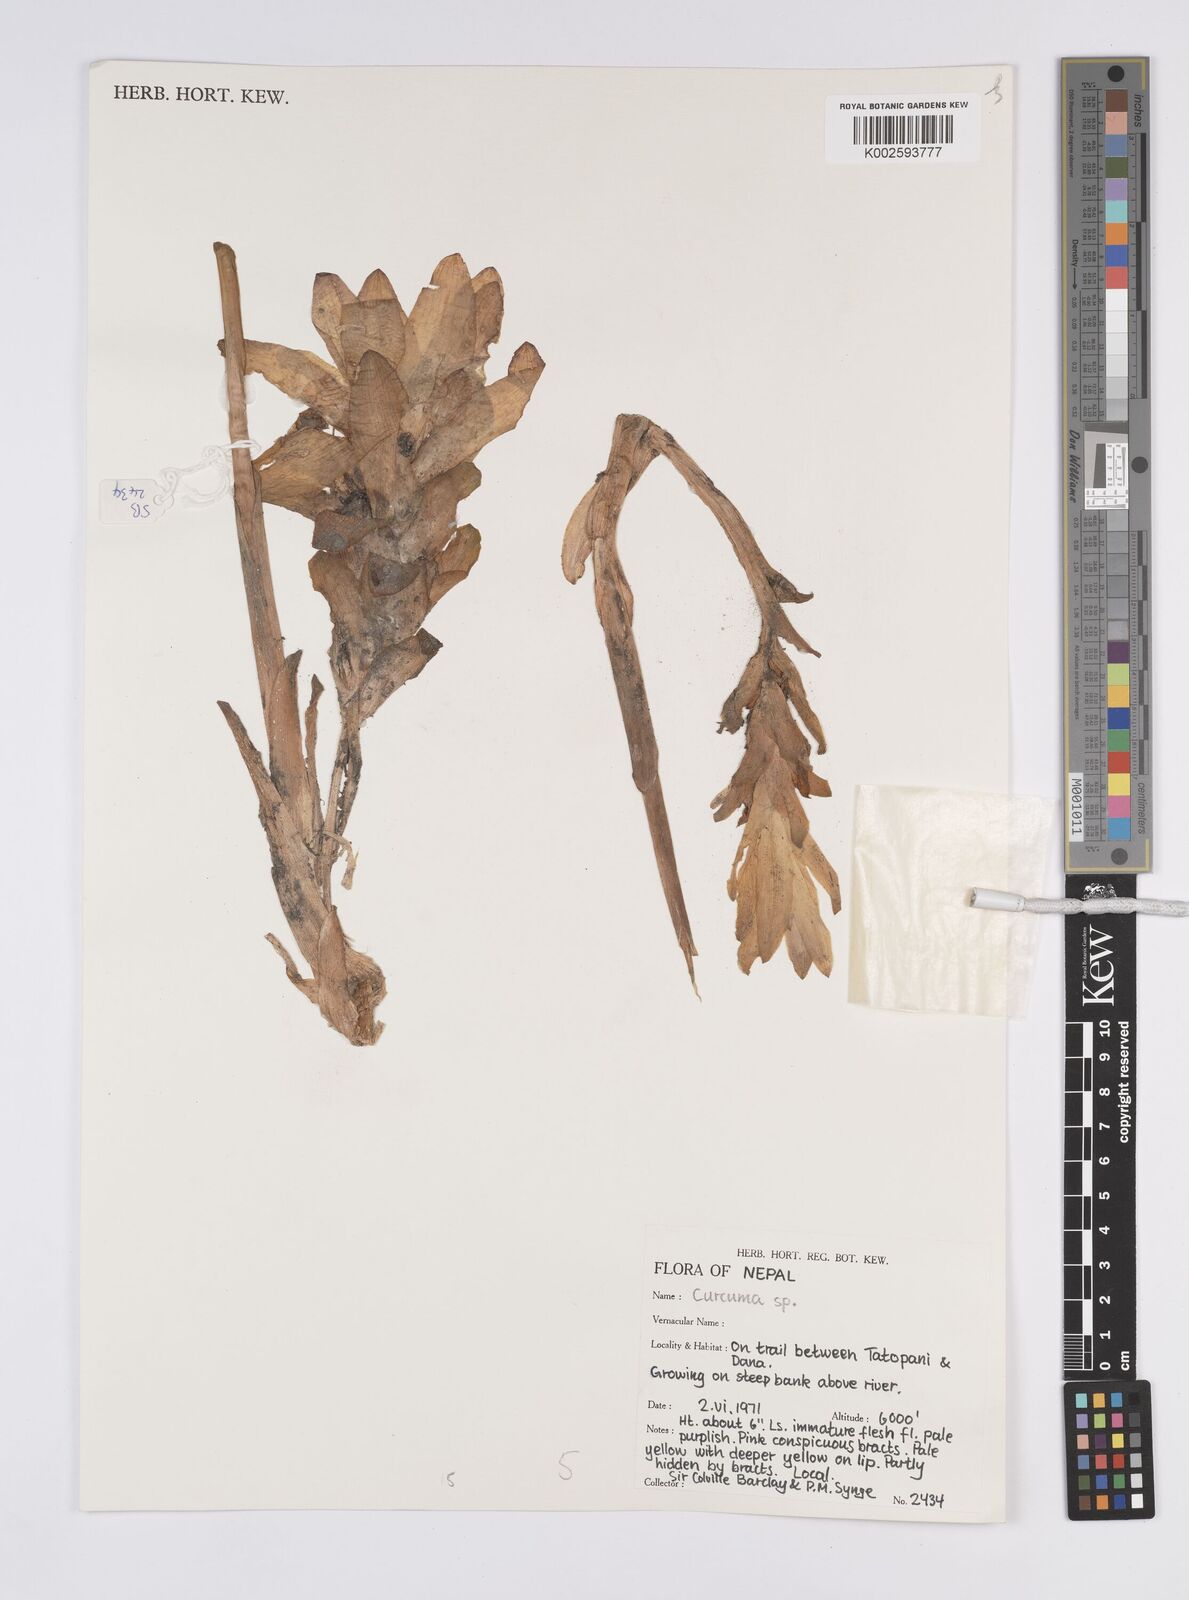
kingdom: Plantae
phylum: Tracheophyta
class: Liliopsida
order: Zingiberales
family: Zingiberaceae
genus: Curcuma
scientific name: Curcuma
